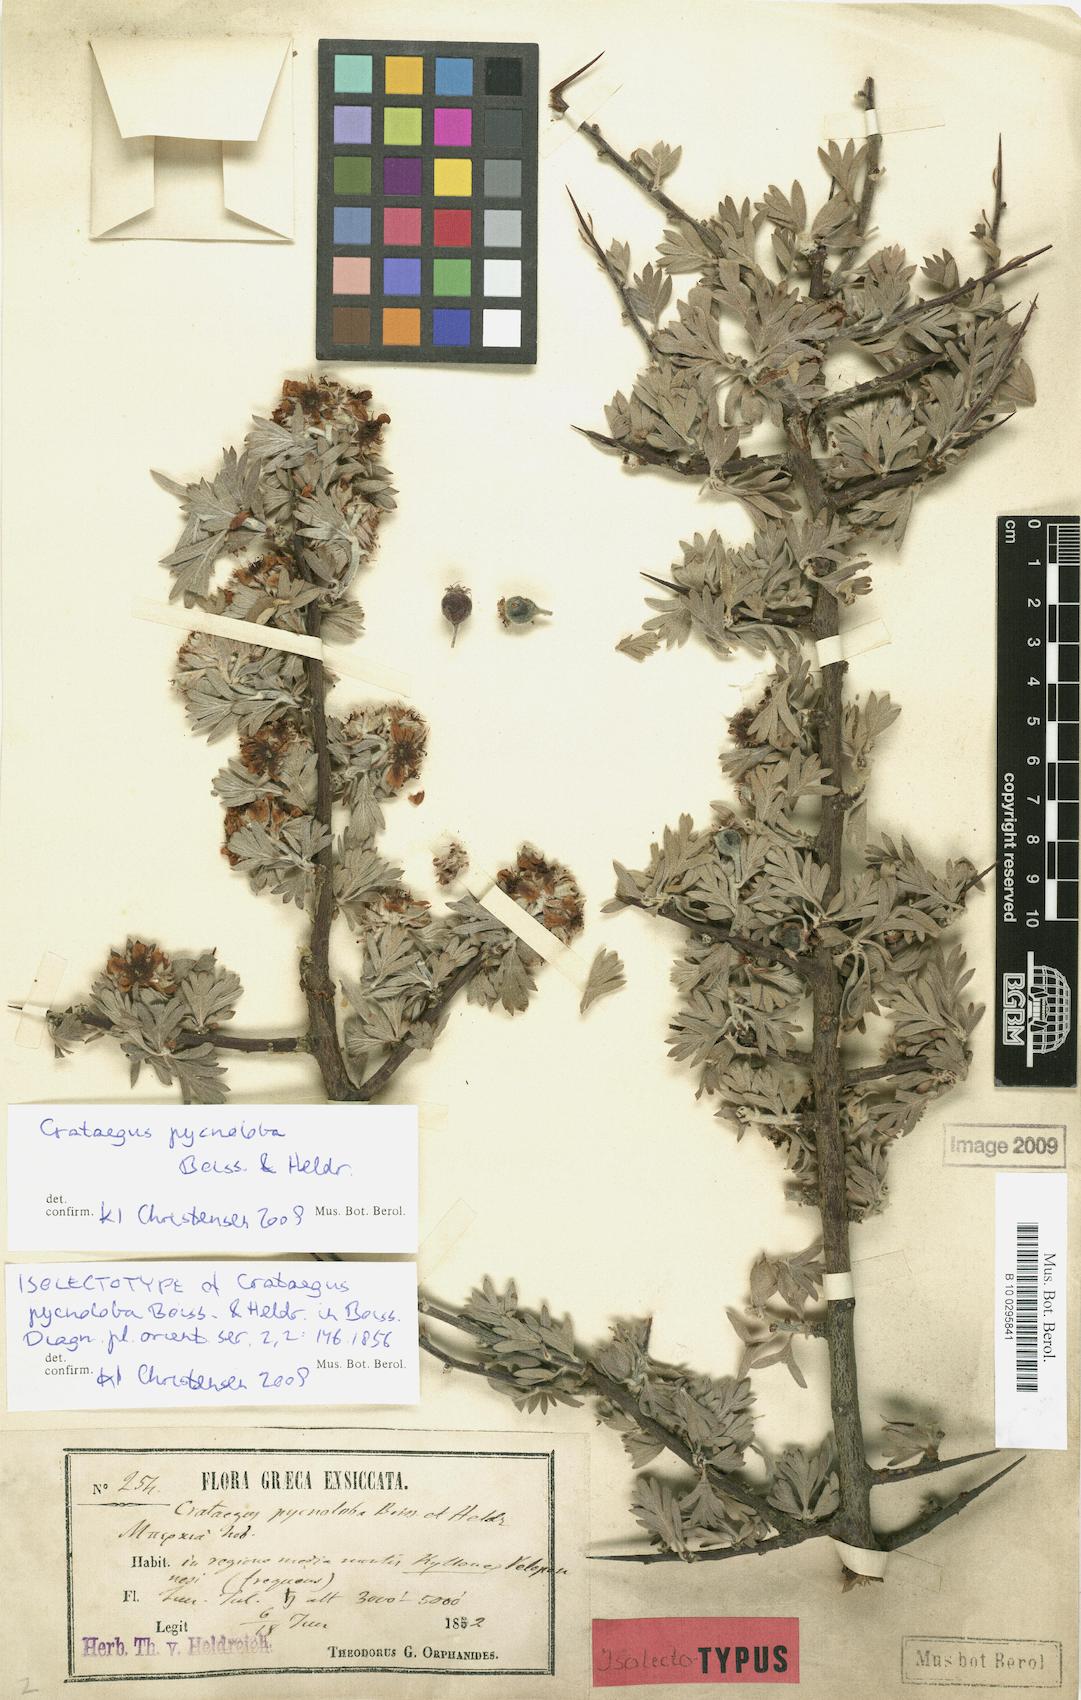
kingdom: Plantae
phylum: Tracheophyta
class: Magnoliopsida
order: Rosales
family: Rosaceae
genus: Crataegus
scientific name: Crataegus pycnoloba
